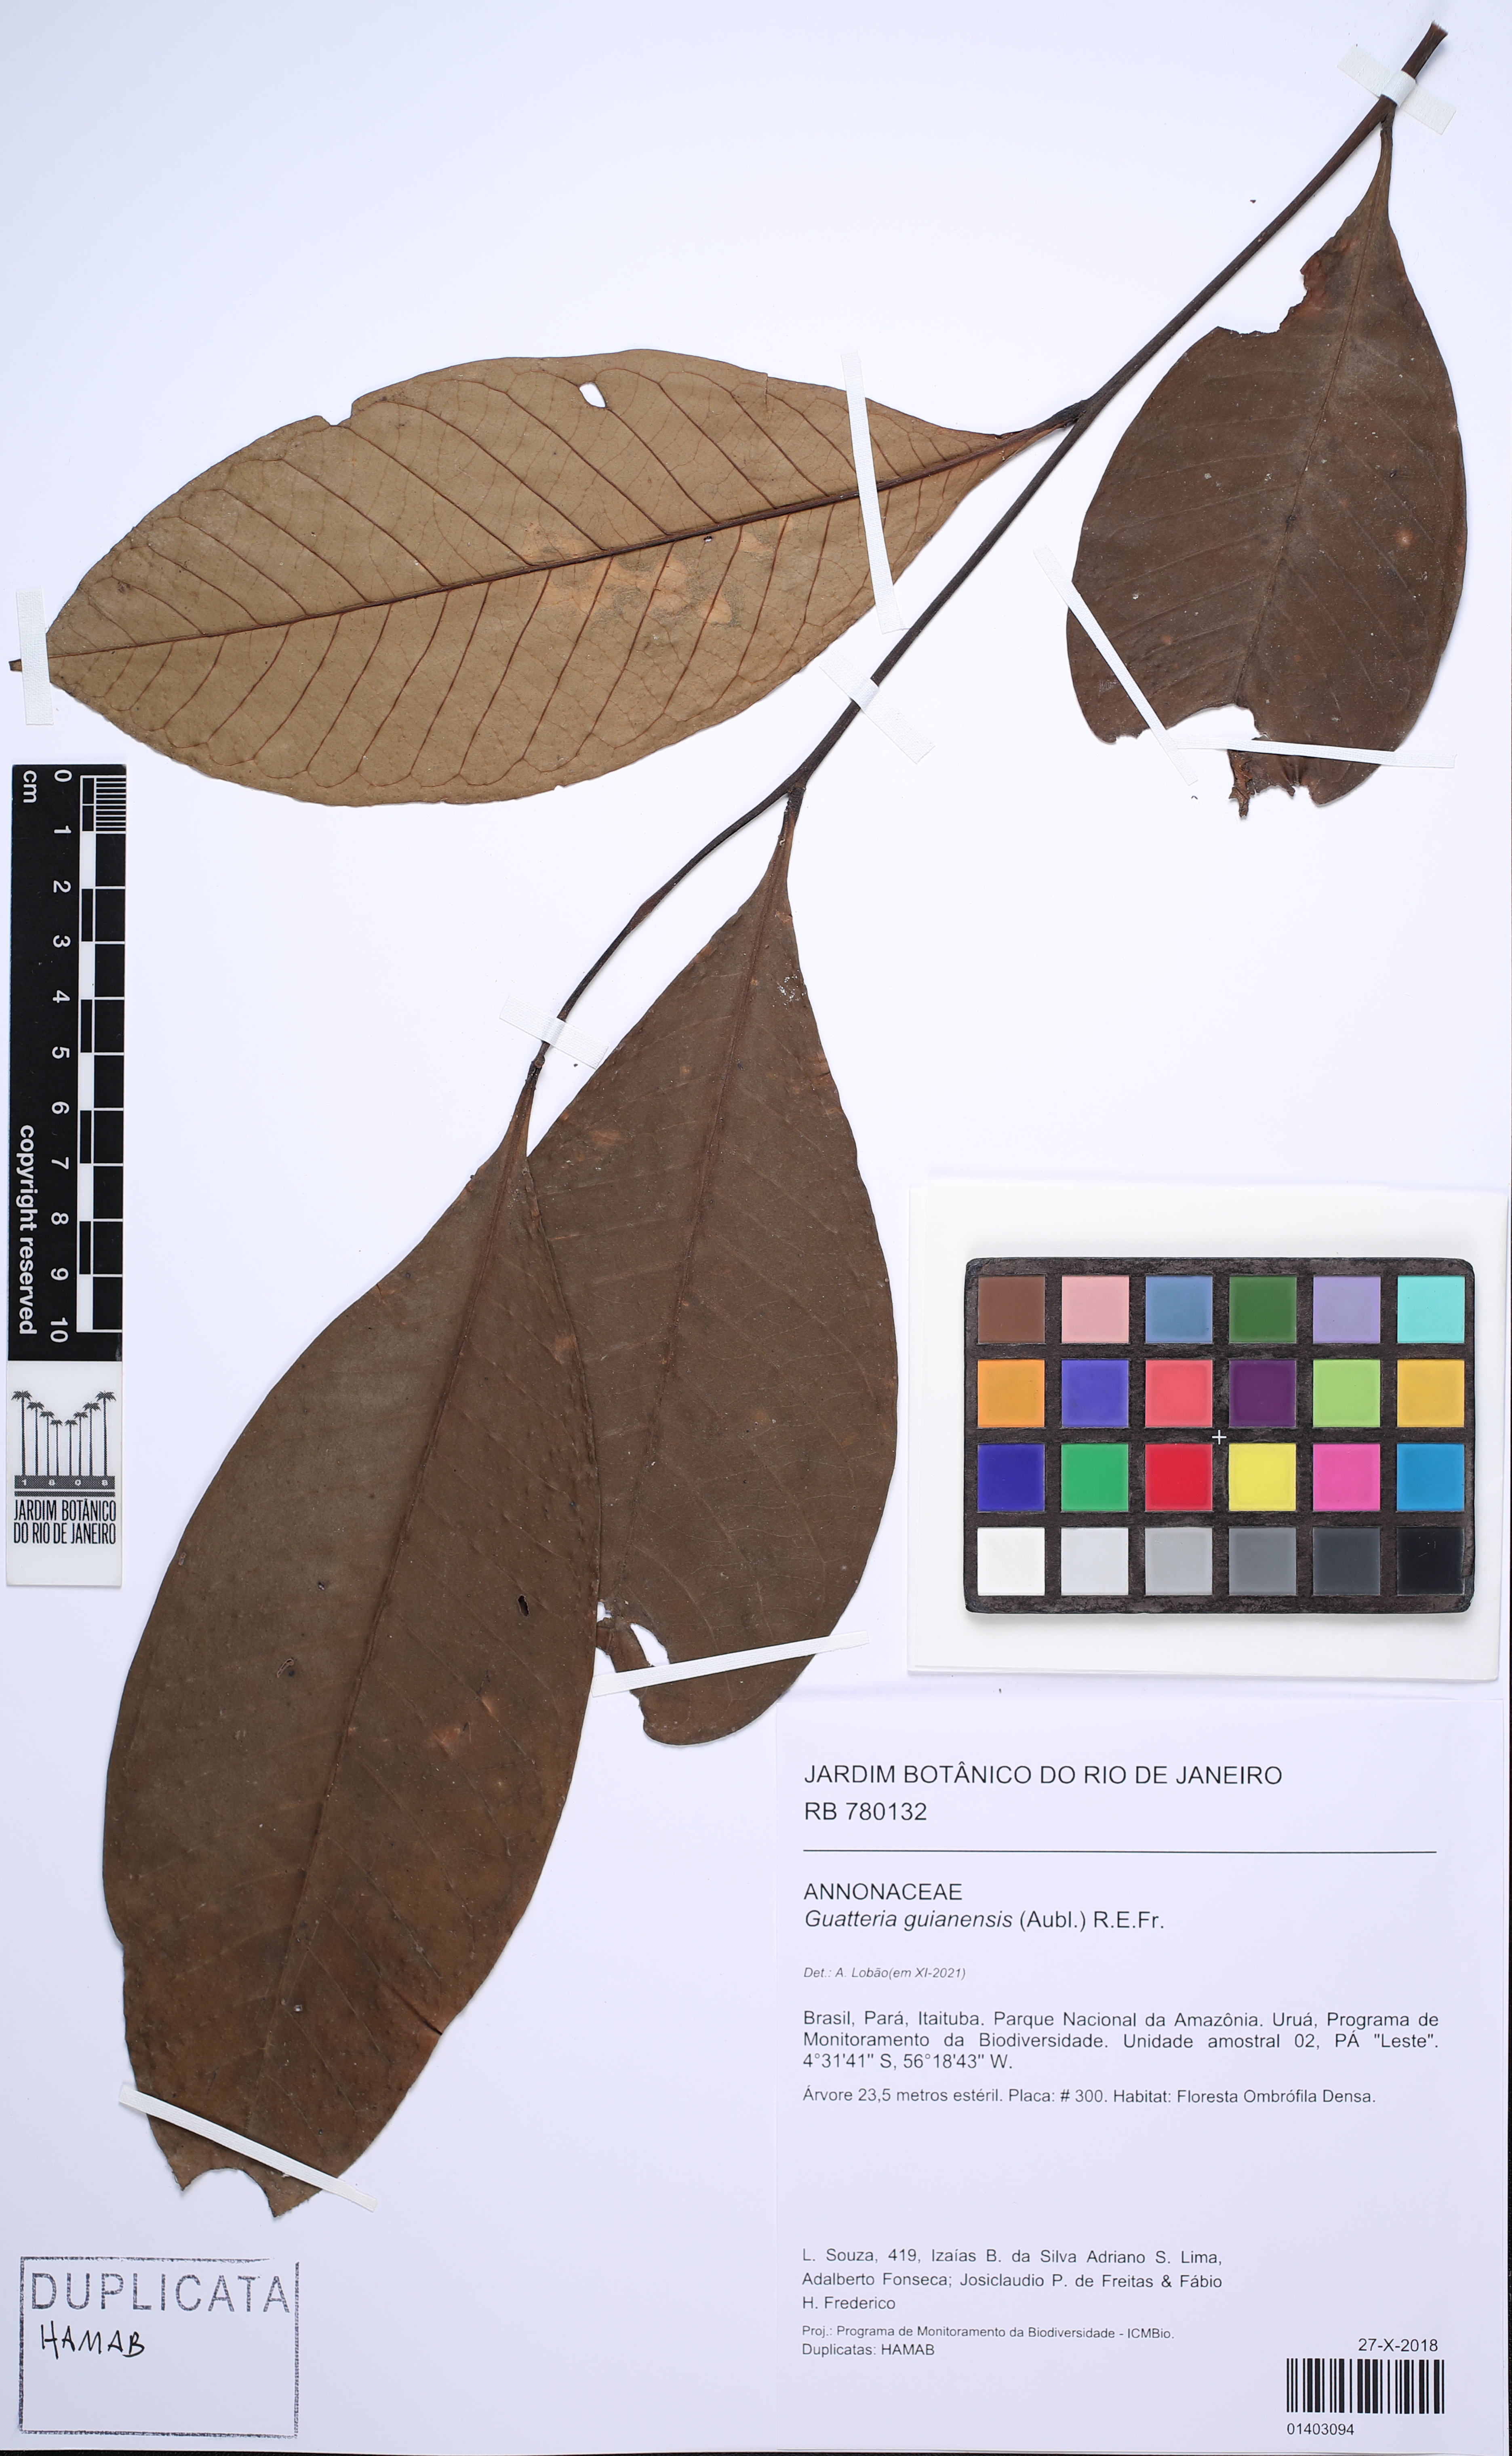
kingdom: Plantae
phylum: Tracheophyta
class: Magnoliopsida
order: Magnoliales
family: Annonaceae
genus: Guatteria
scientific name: Guatteria guianensis
